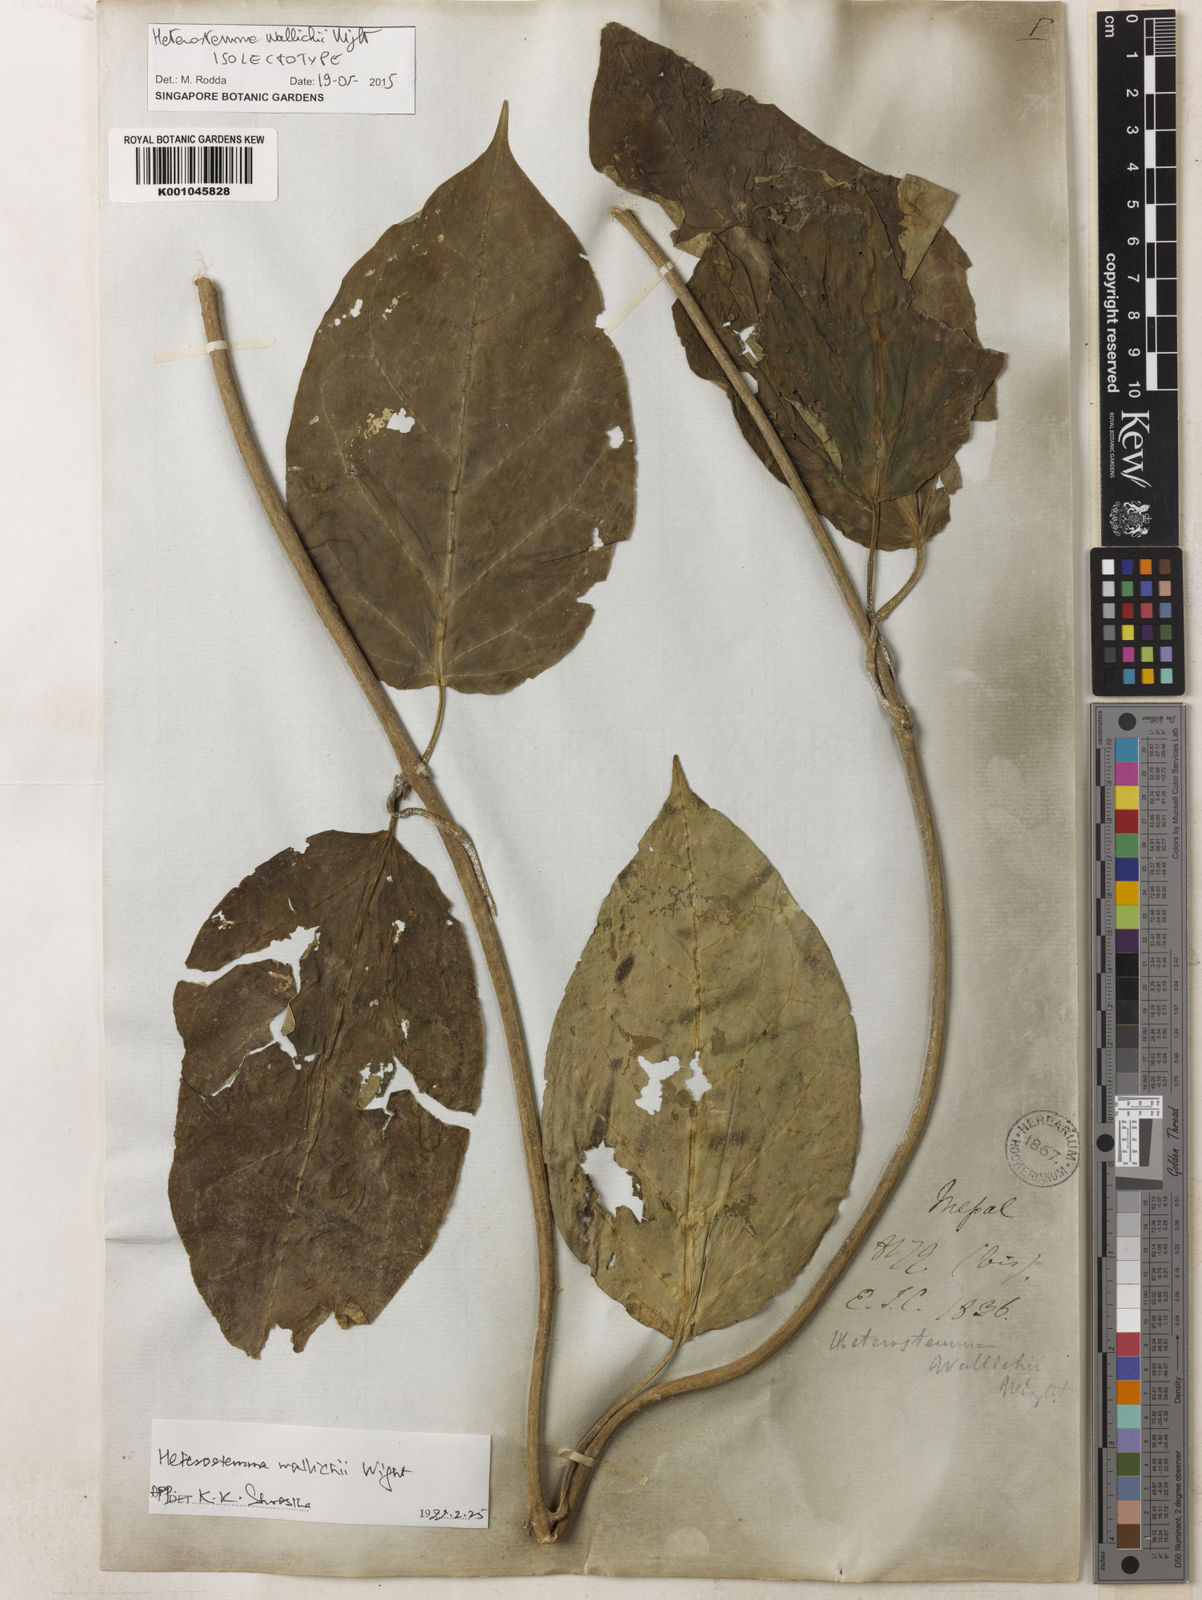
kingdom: Plantae
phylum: Tracheophyta
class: Magnoliopsida
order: Gentianales
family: Apocynaceae
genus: Heterostemma
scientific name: Heterostemma wallichii
